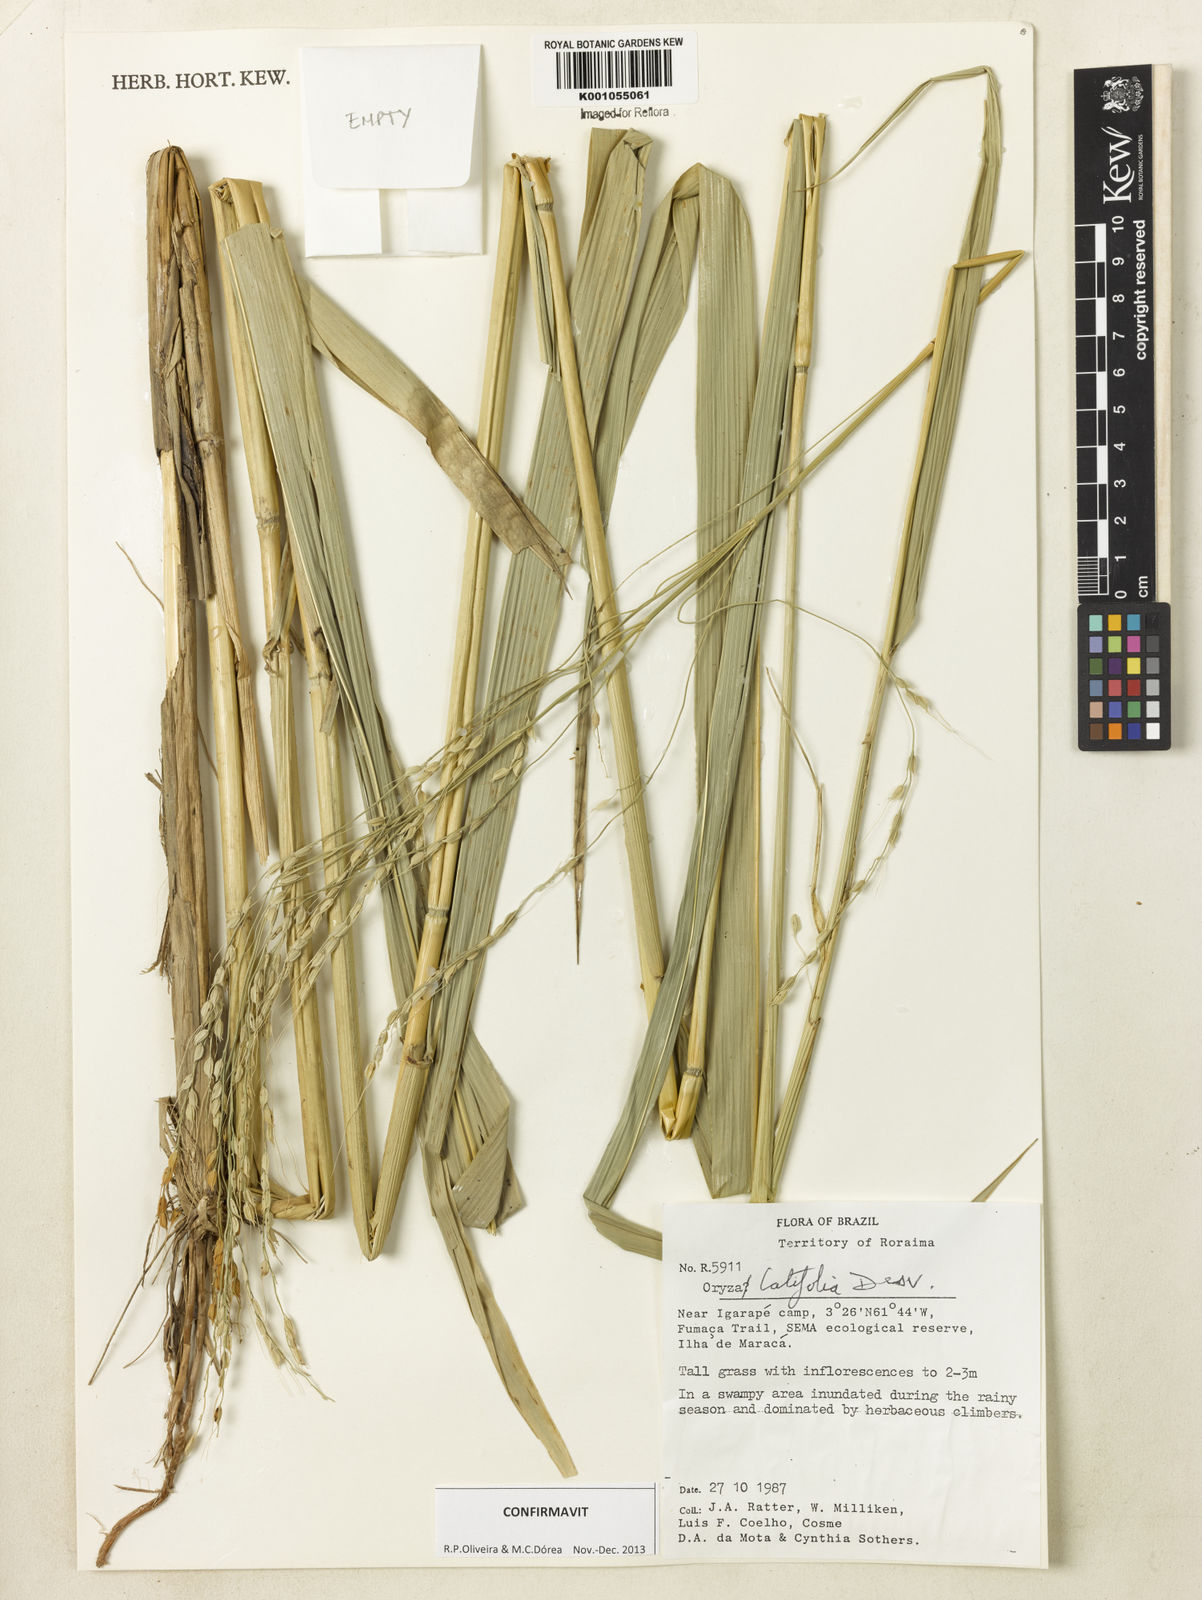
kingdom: Plantae
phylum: Tracheophyta
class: Liliopsida
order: Poales
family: Poaceae
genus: Oryza
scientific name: Oryza latifolia
